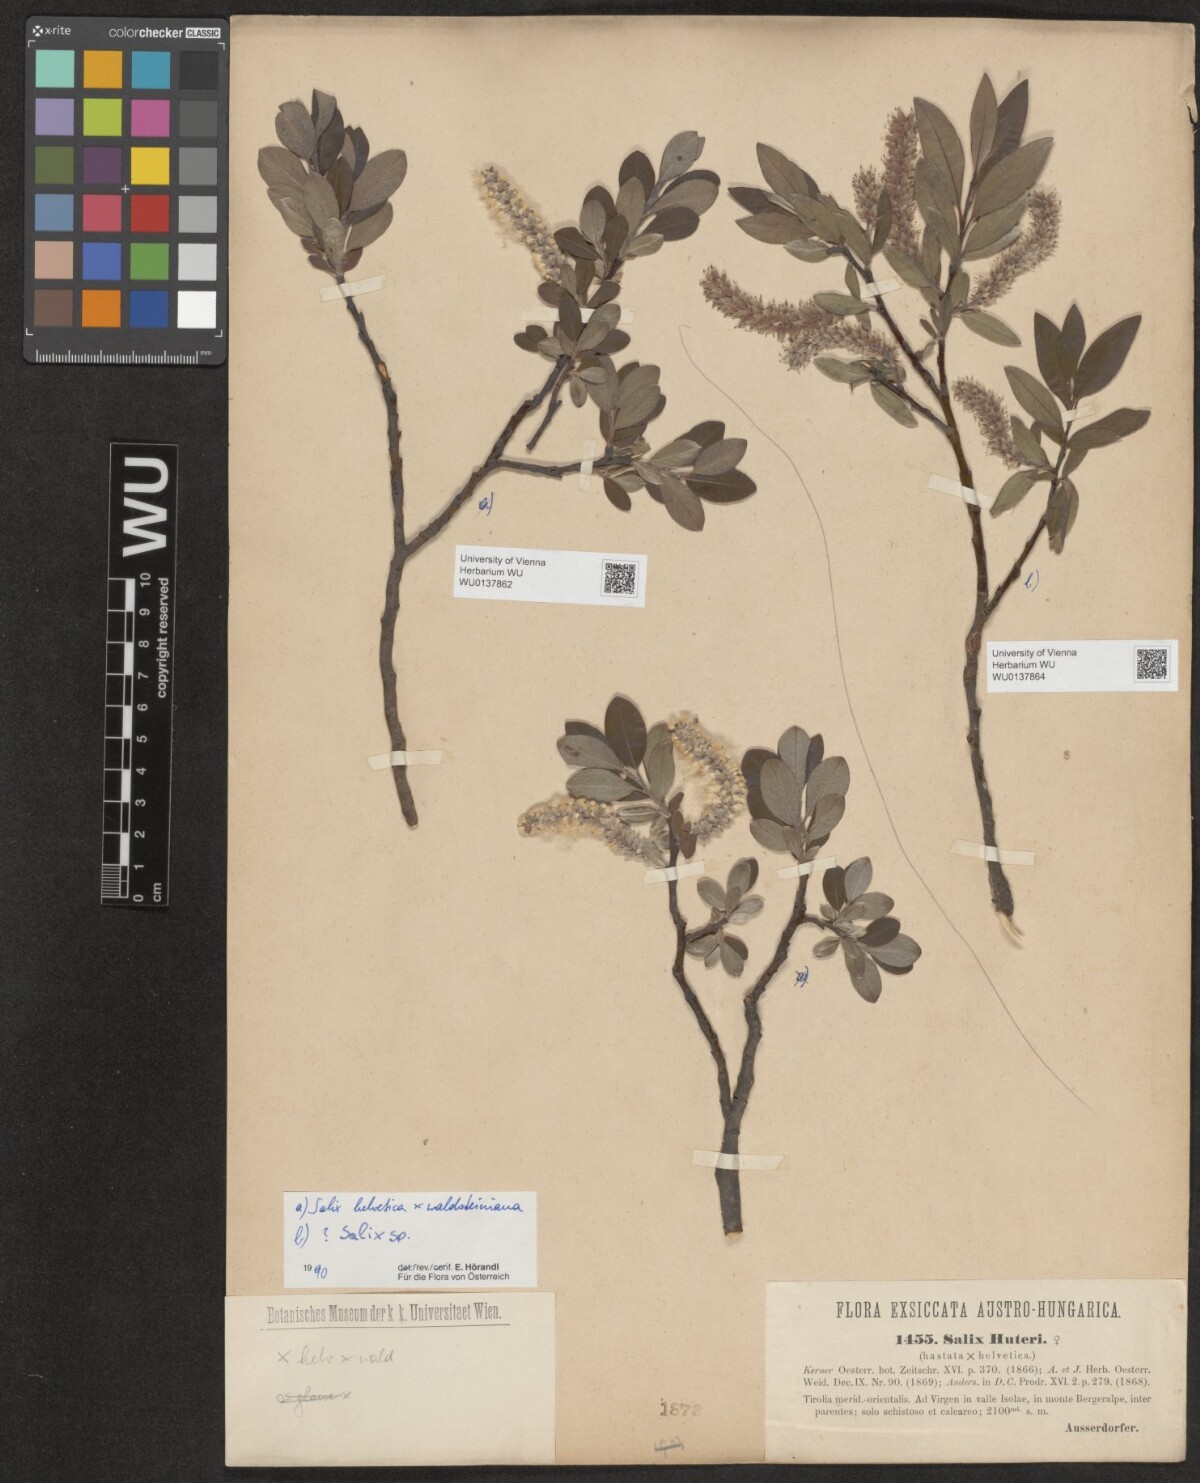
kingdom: Plantae
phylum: Tracheophyta
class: Magnoliopsida
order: Malpighiales
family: Salicaceae
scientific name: Salicaceae
